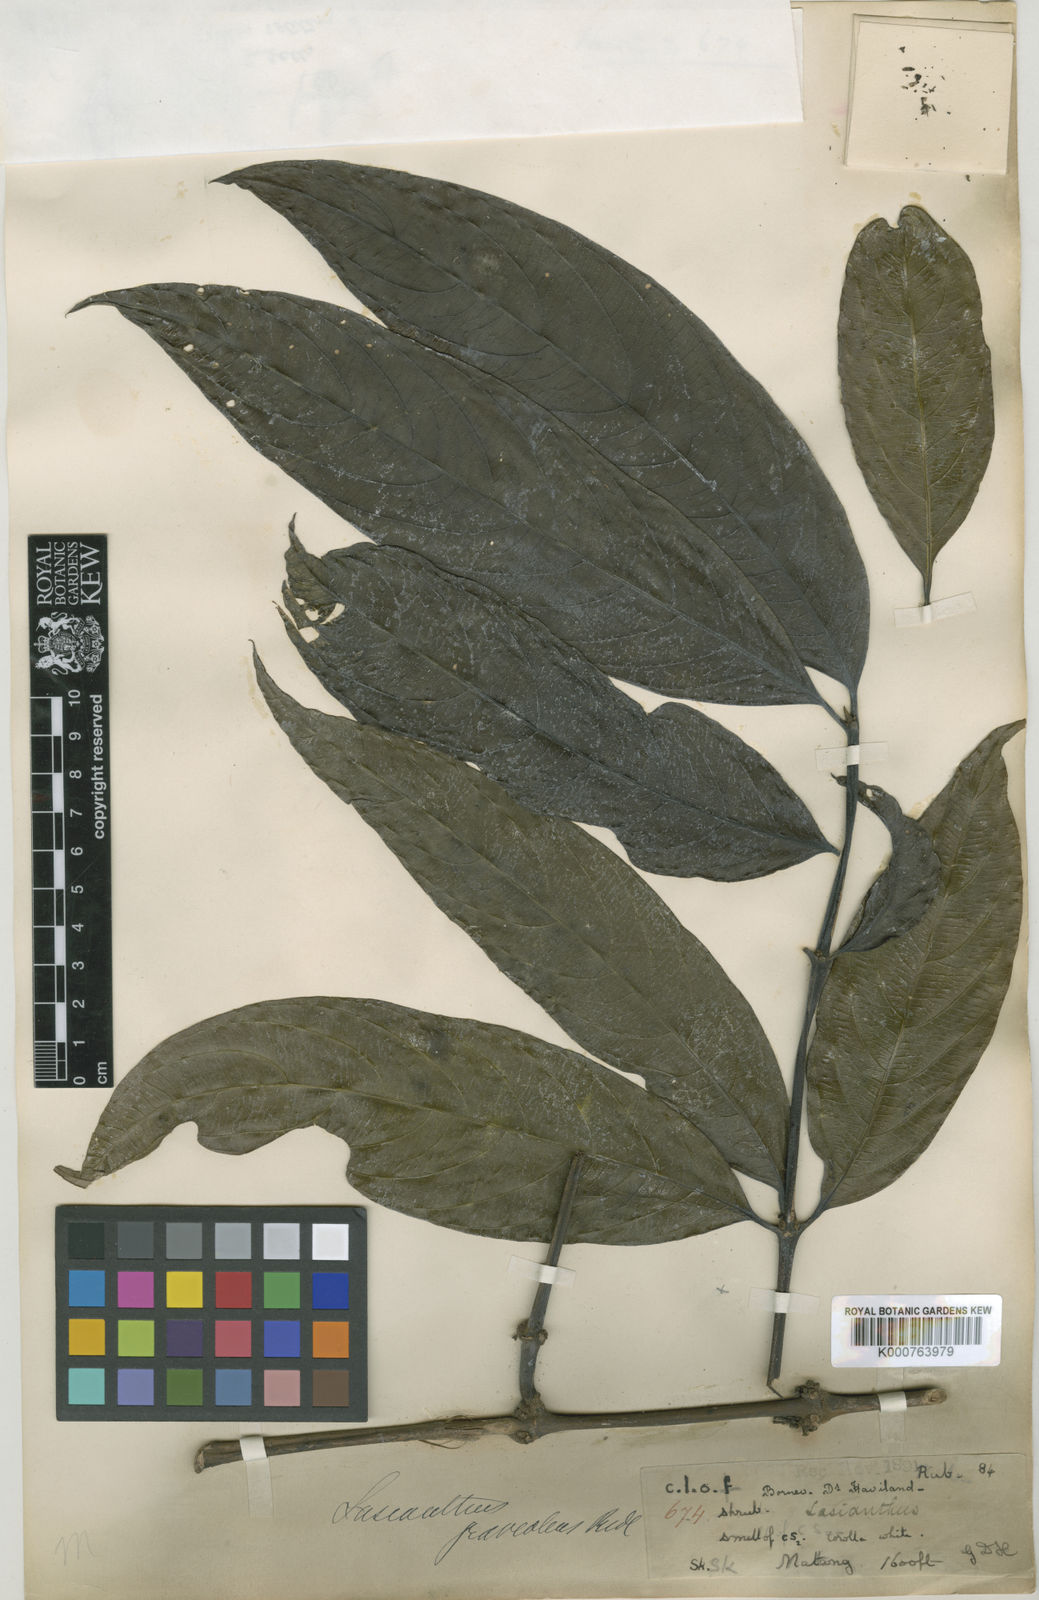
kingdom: Plantae
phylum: Tracheophyta
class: Magnoliopsida
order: Gentianales
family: Rubiaceae
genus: Lasianthus
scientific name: Lasianthus
